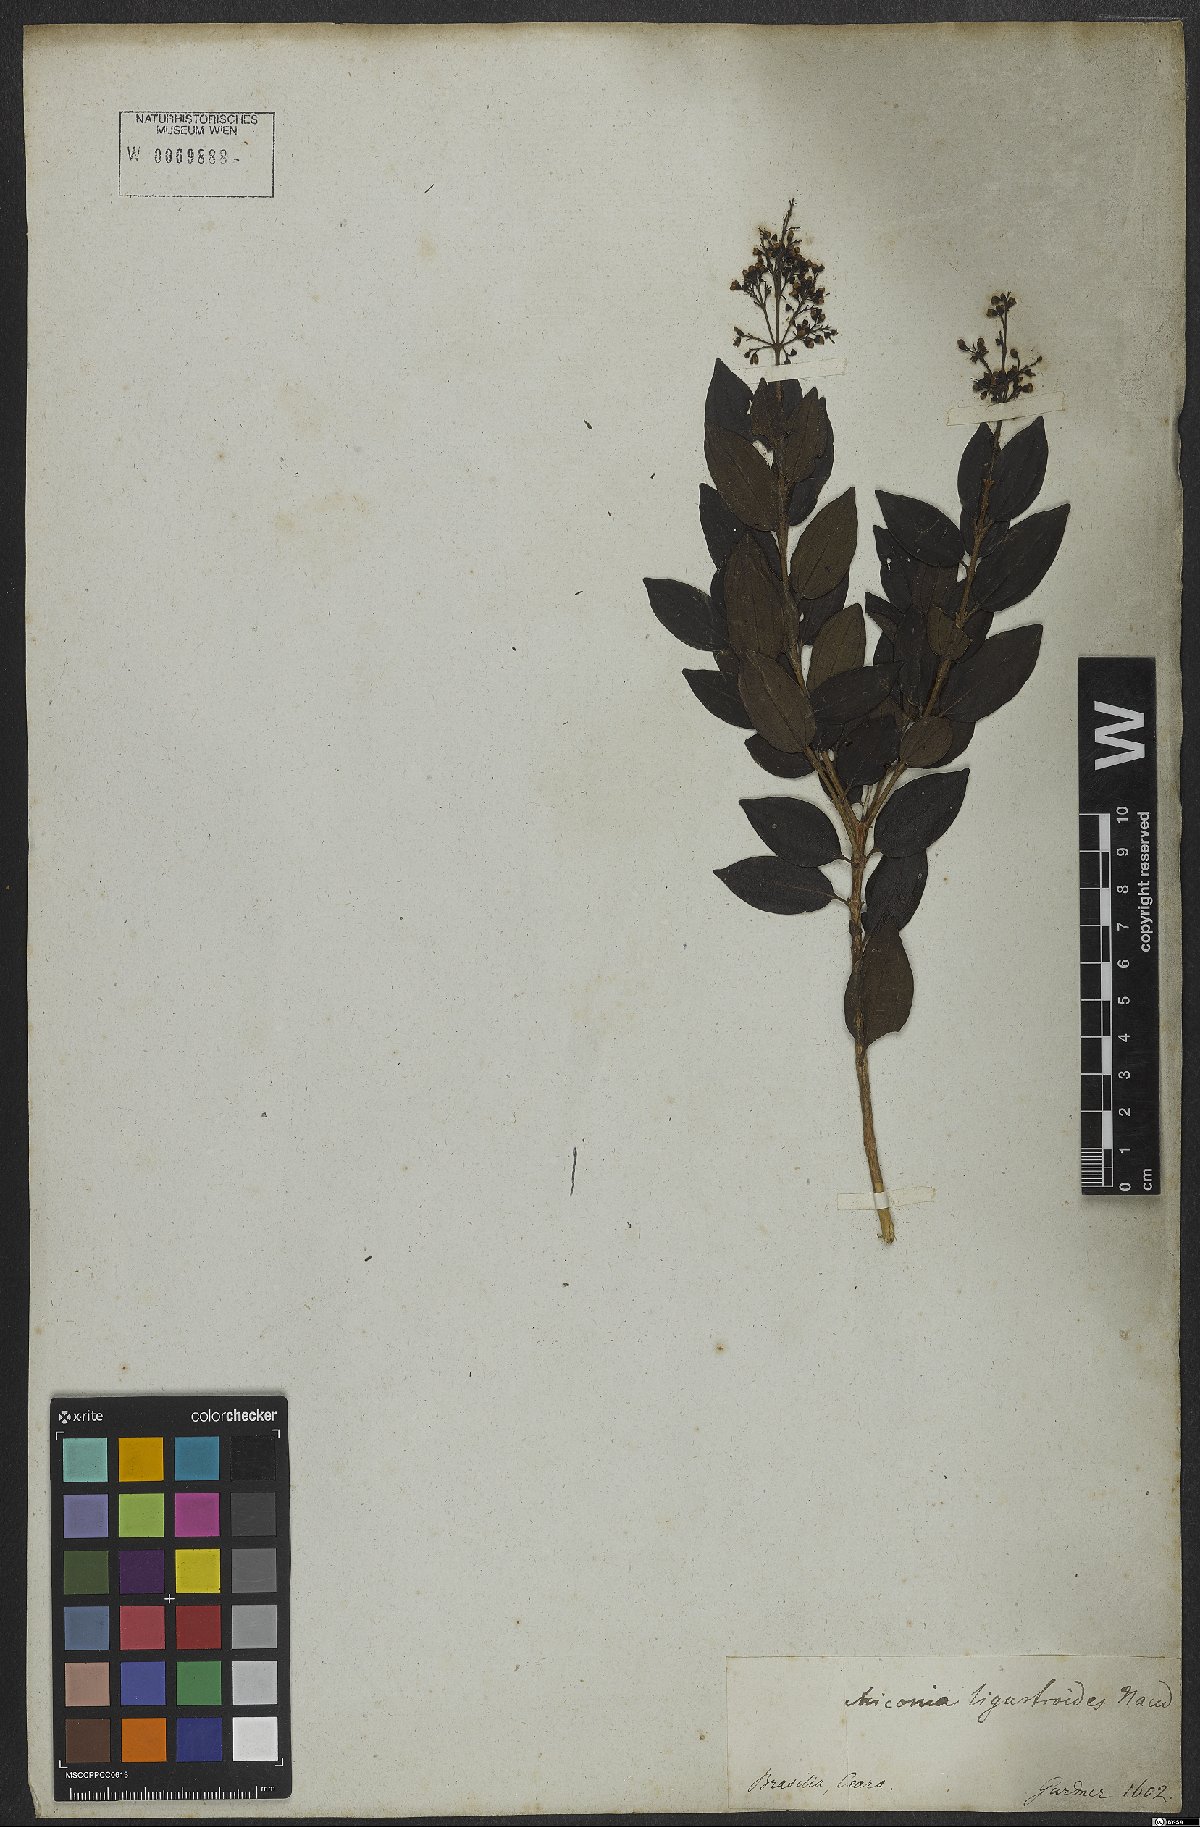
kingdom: Plantae
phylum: Tracheophyta
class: Magnoliopsida
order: Myrtales
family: Melastomataceae
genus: Miconia
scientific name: Miconia ligustroides
